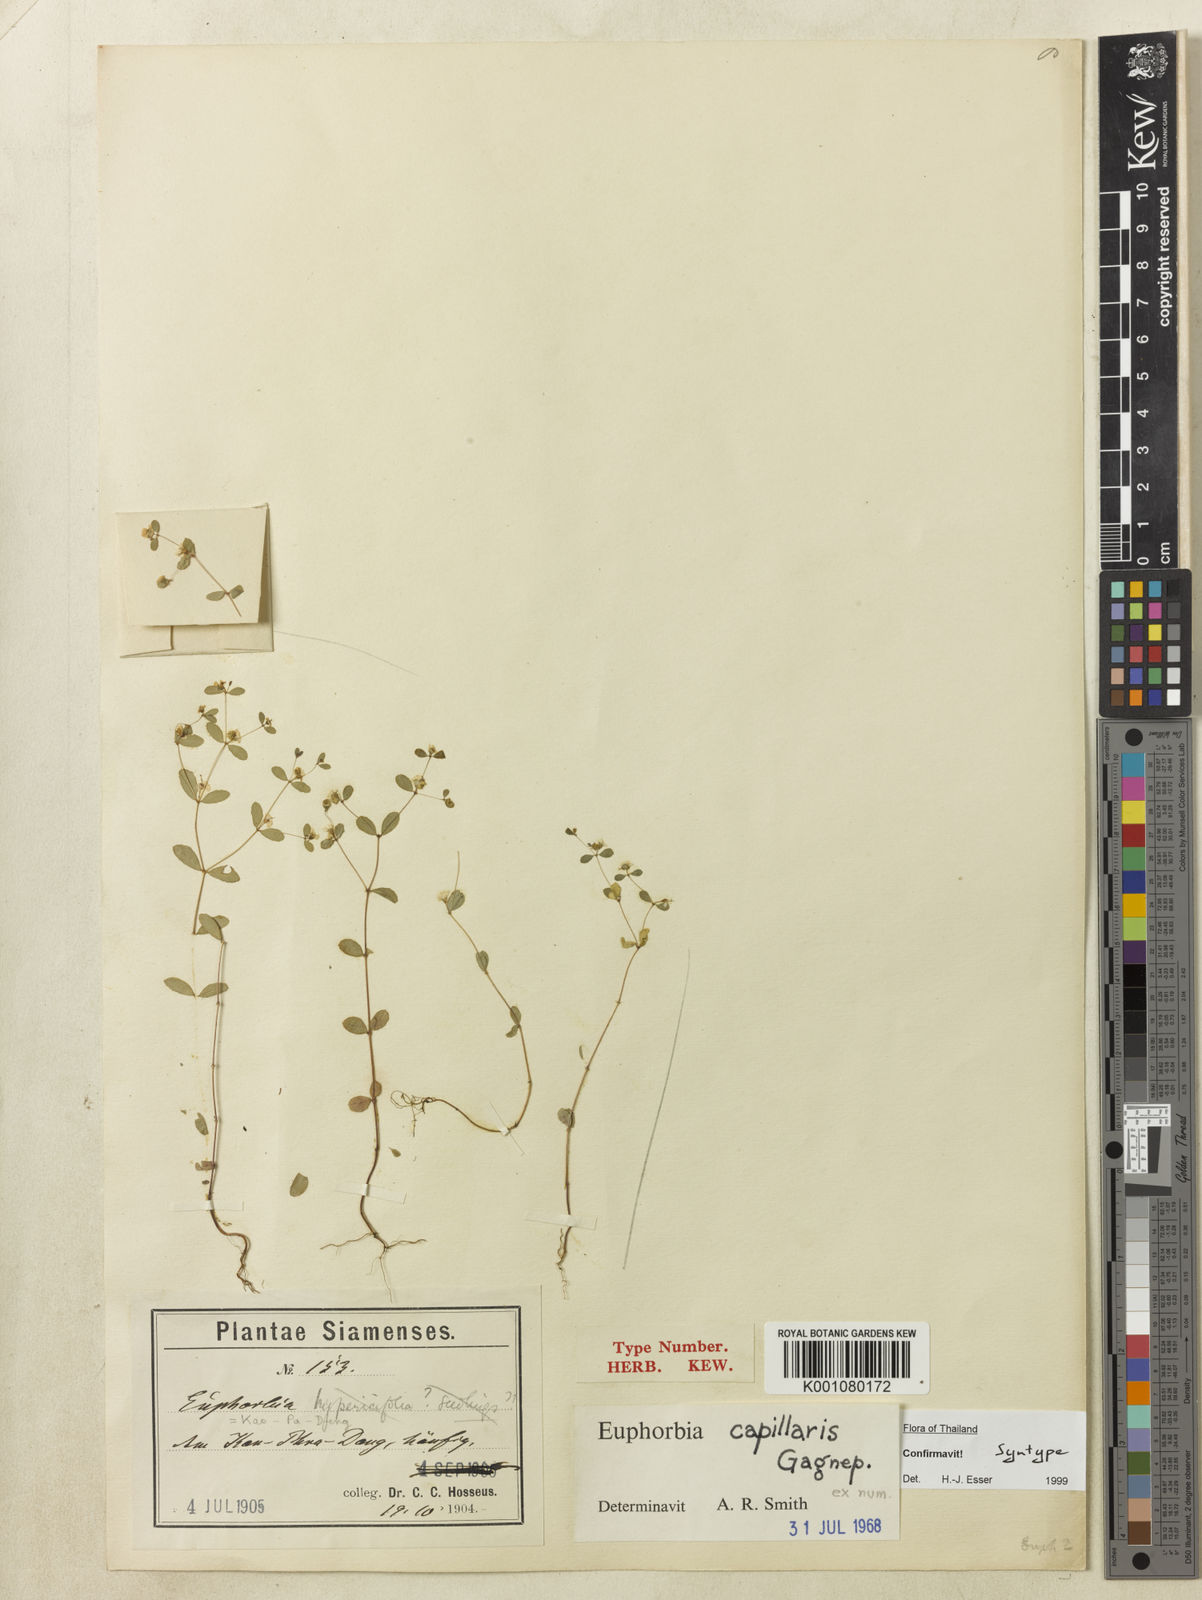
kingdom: Plantae
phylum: Tracheophyta
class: Magnoliopsida
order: Malpighiales
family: Euphorbiaceae
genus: Euphorbia
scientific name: Euphorbia capillaris
